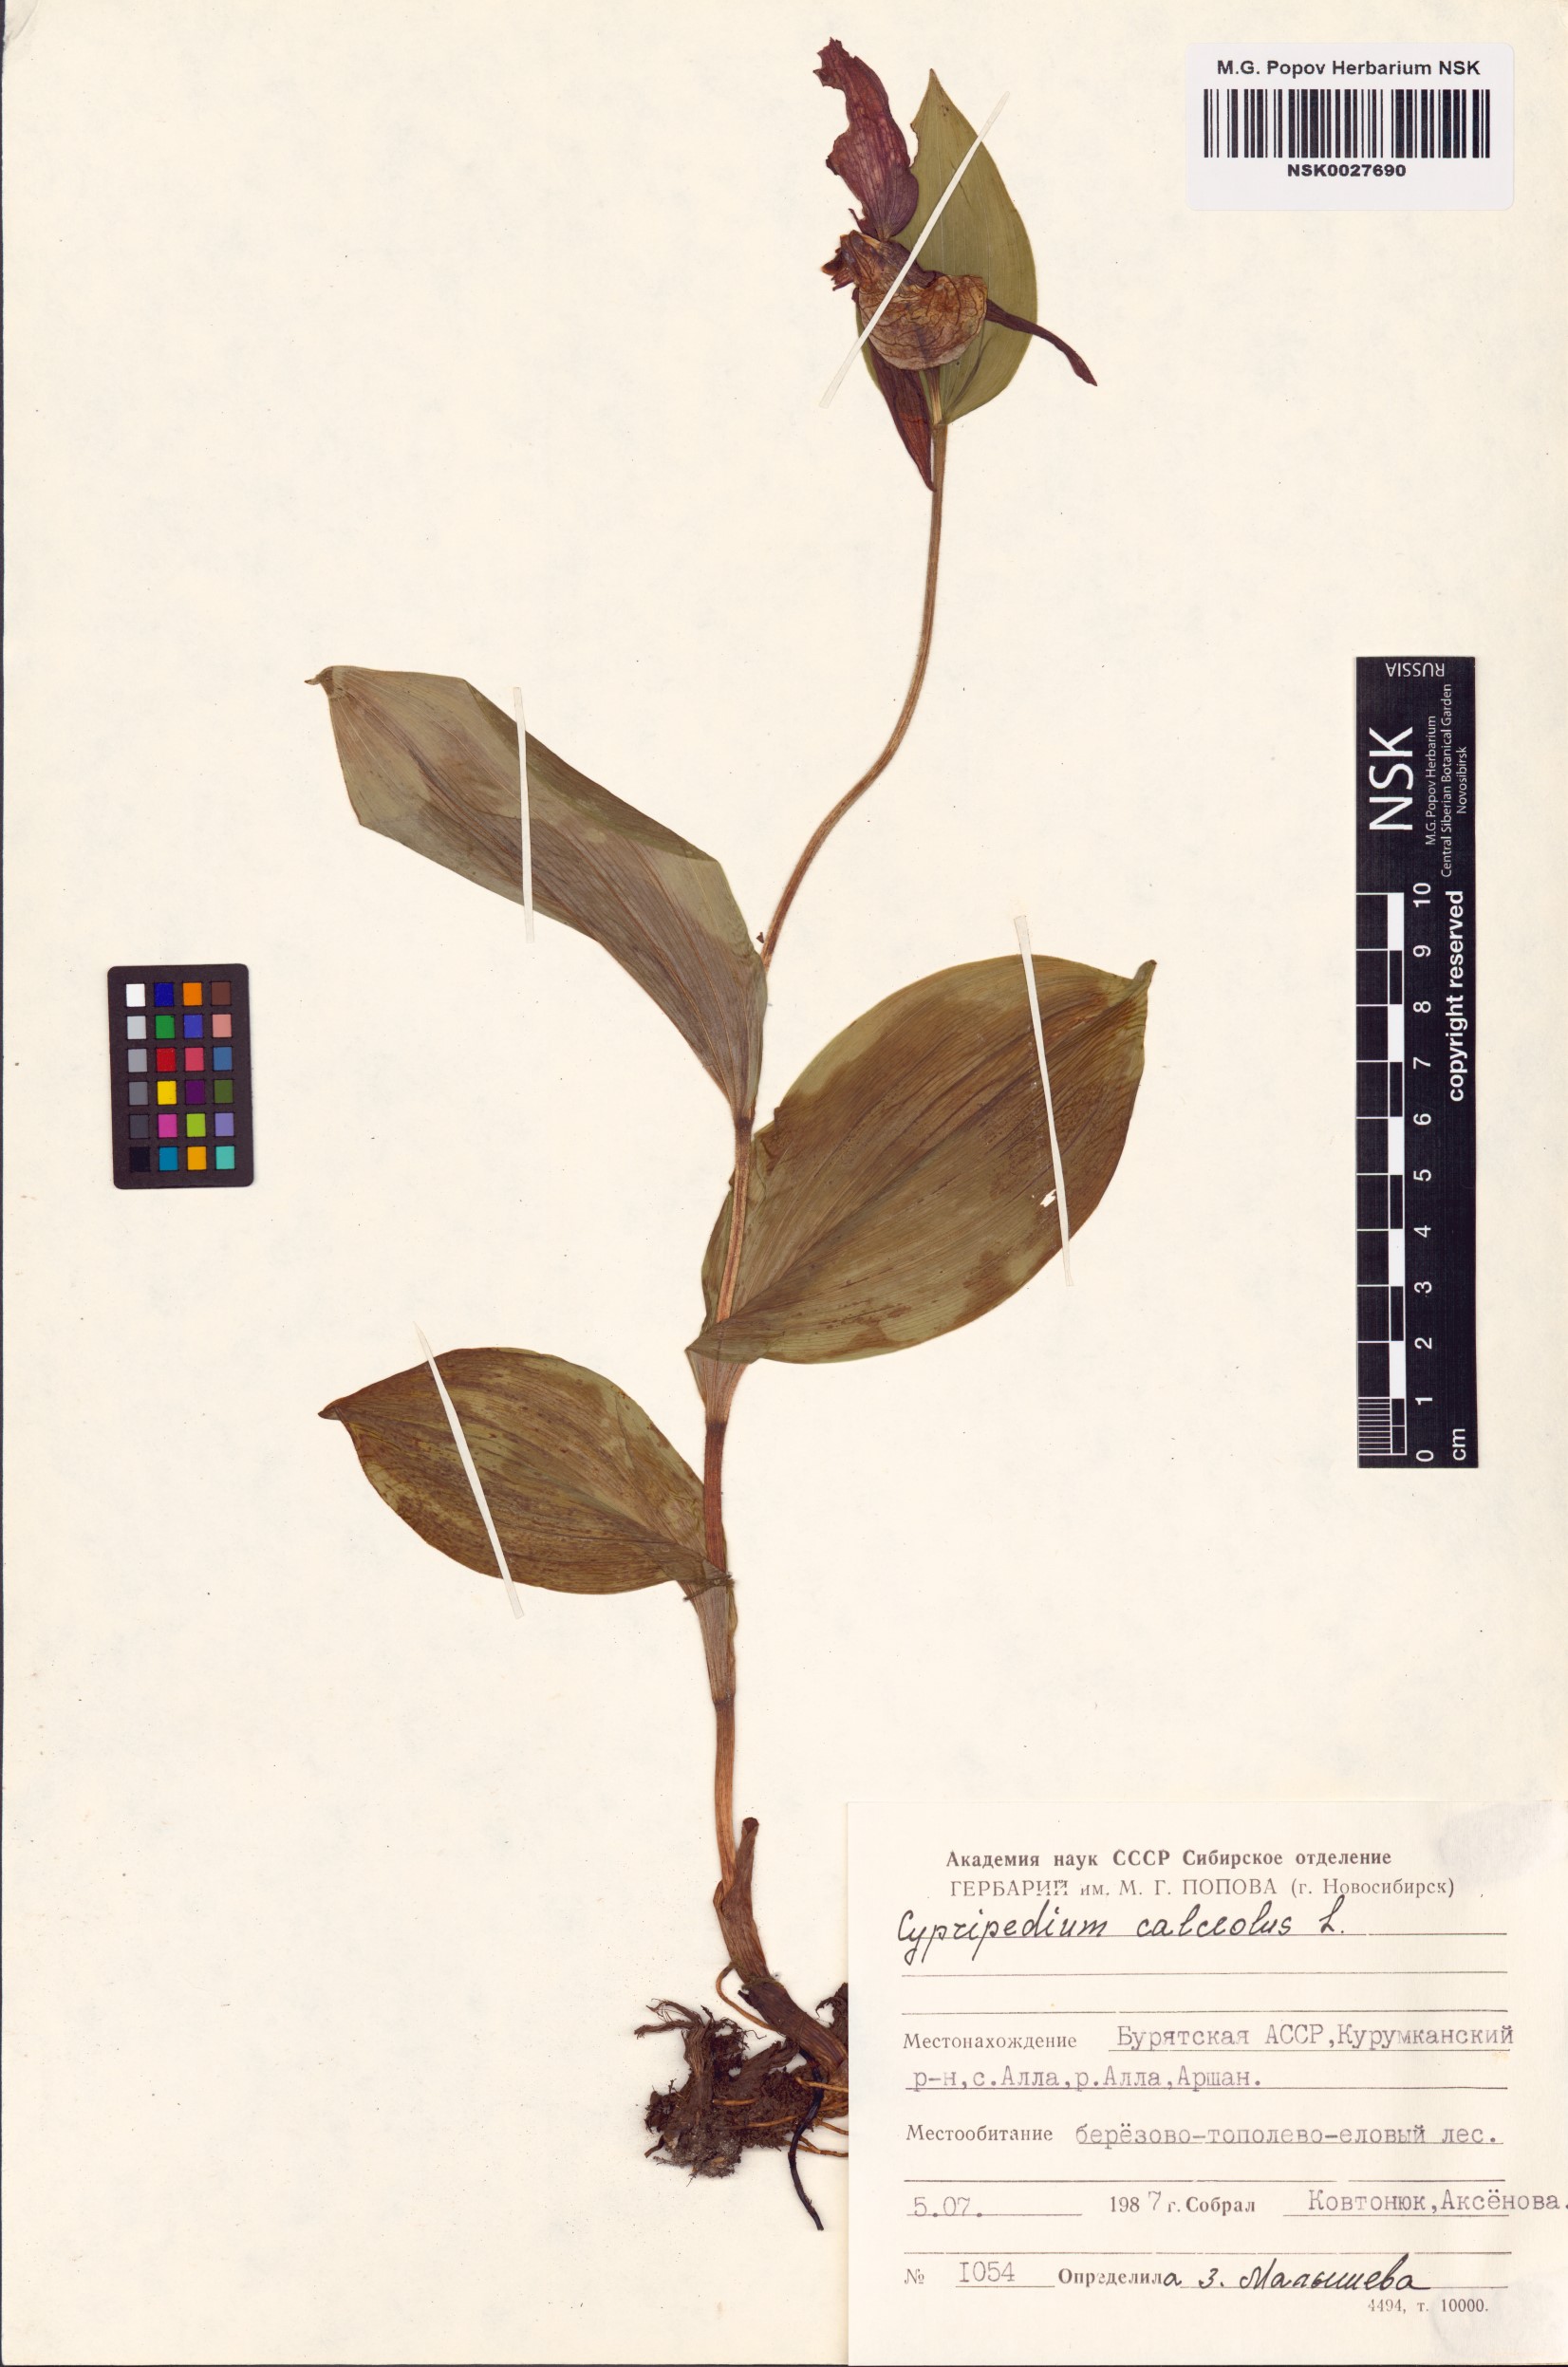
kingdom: Plantae
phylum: Tracheophyta
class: Liliopsida
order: Asparagales
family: Orchidaceae
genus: Cypripedium
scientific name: Cypripedium calceolus
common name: Lady's-slipper
